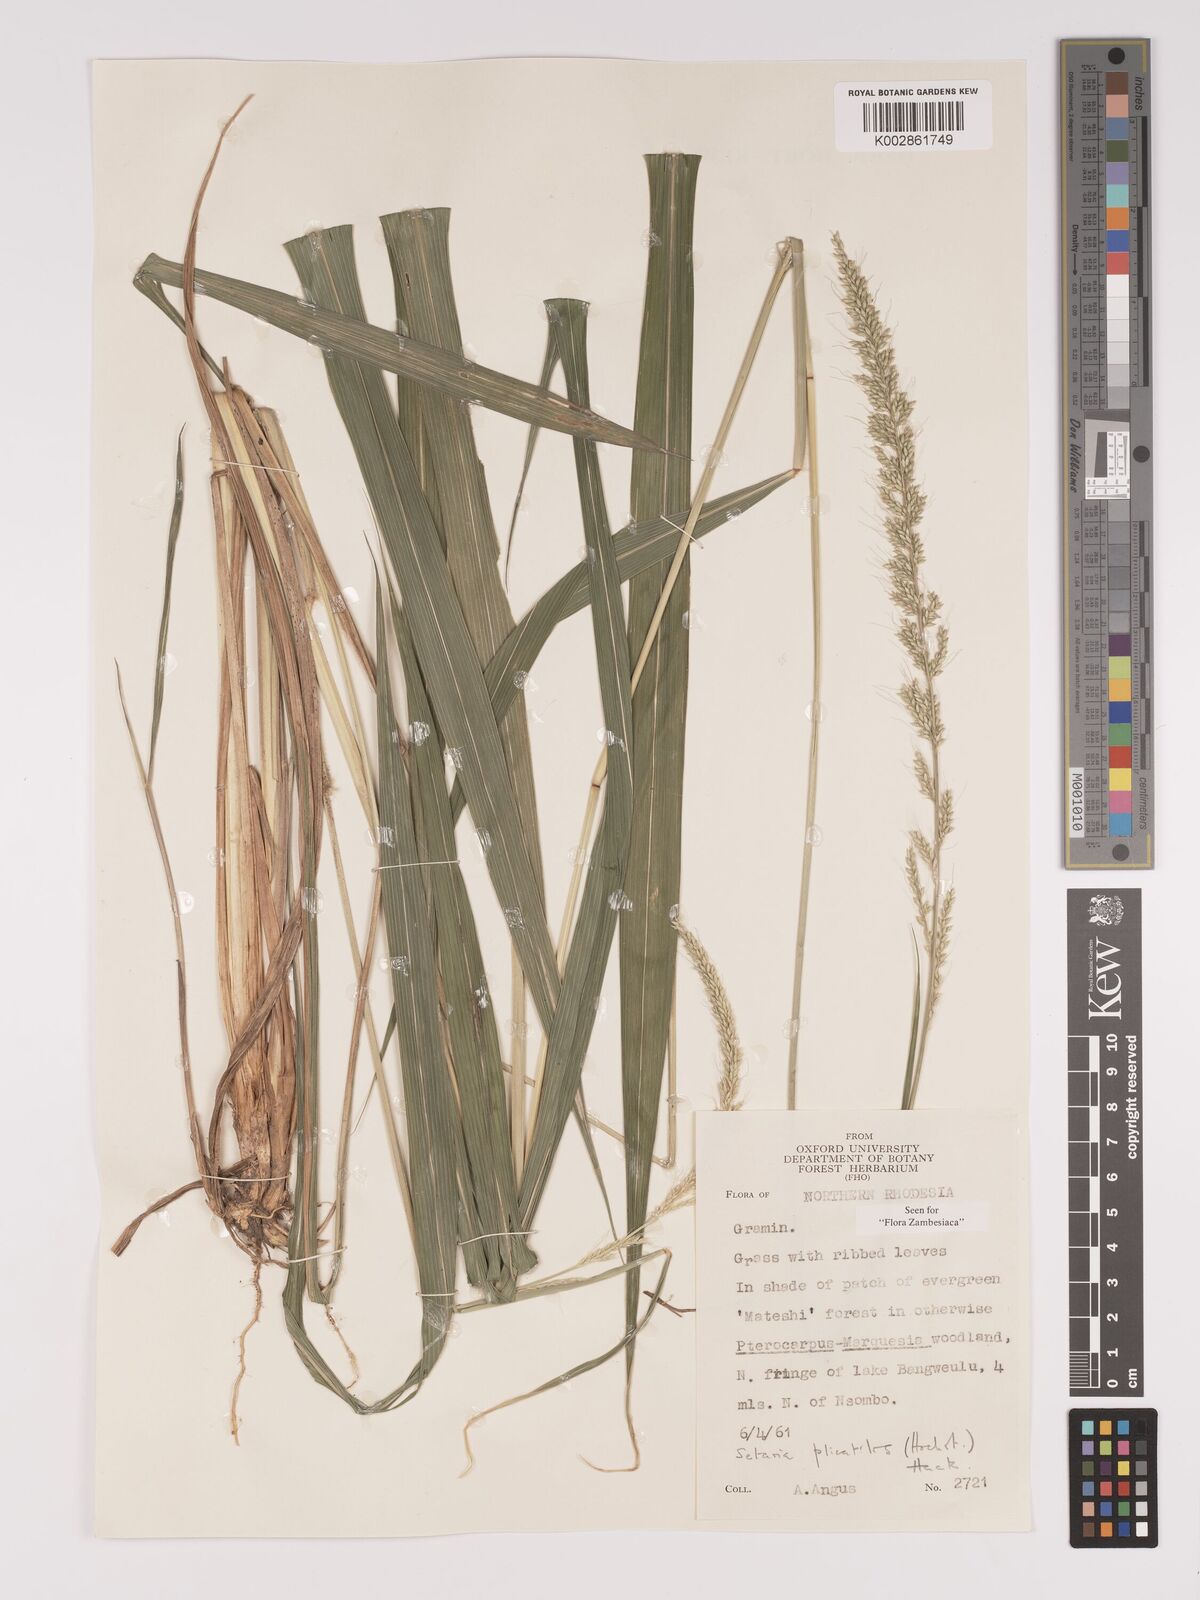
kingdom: Plantae
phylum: Tracheophyta
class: Liliopsida
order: Poales
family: Poaceae
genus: Setaria
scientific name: Setaria megaphylla
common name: Bigleaf bristlegrass
